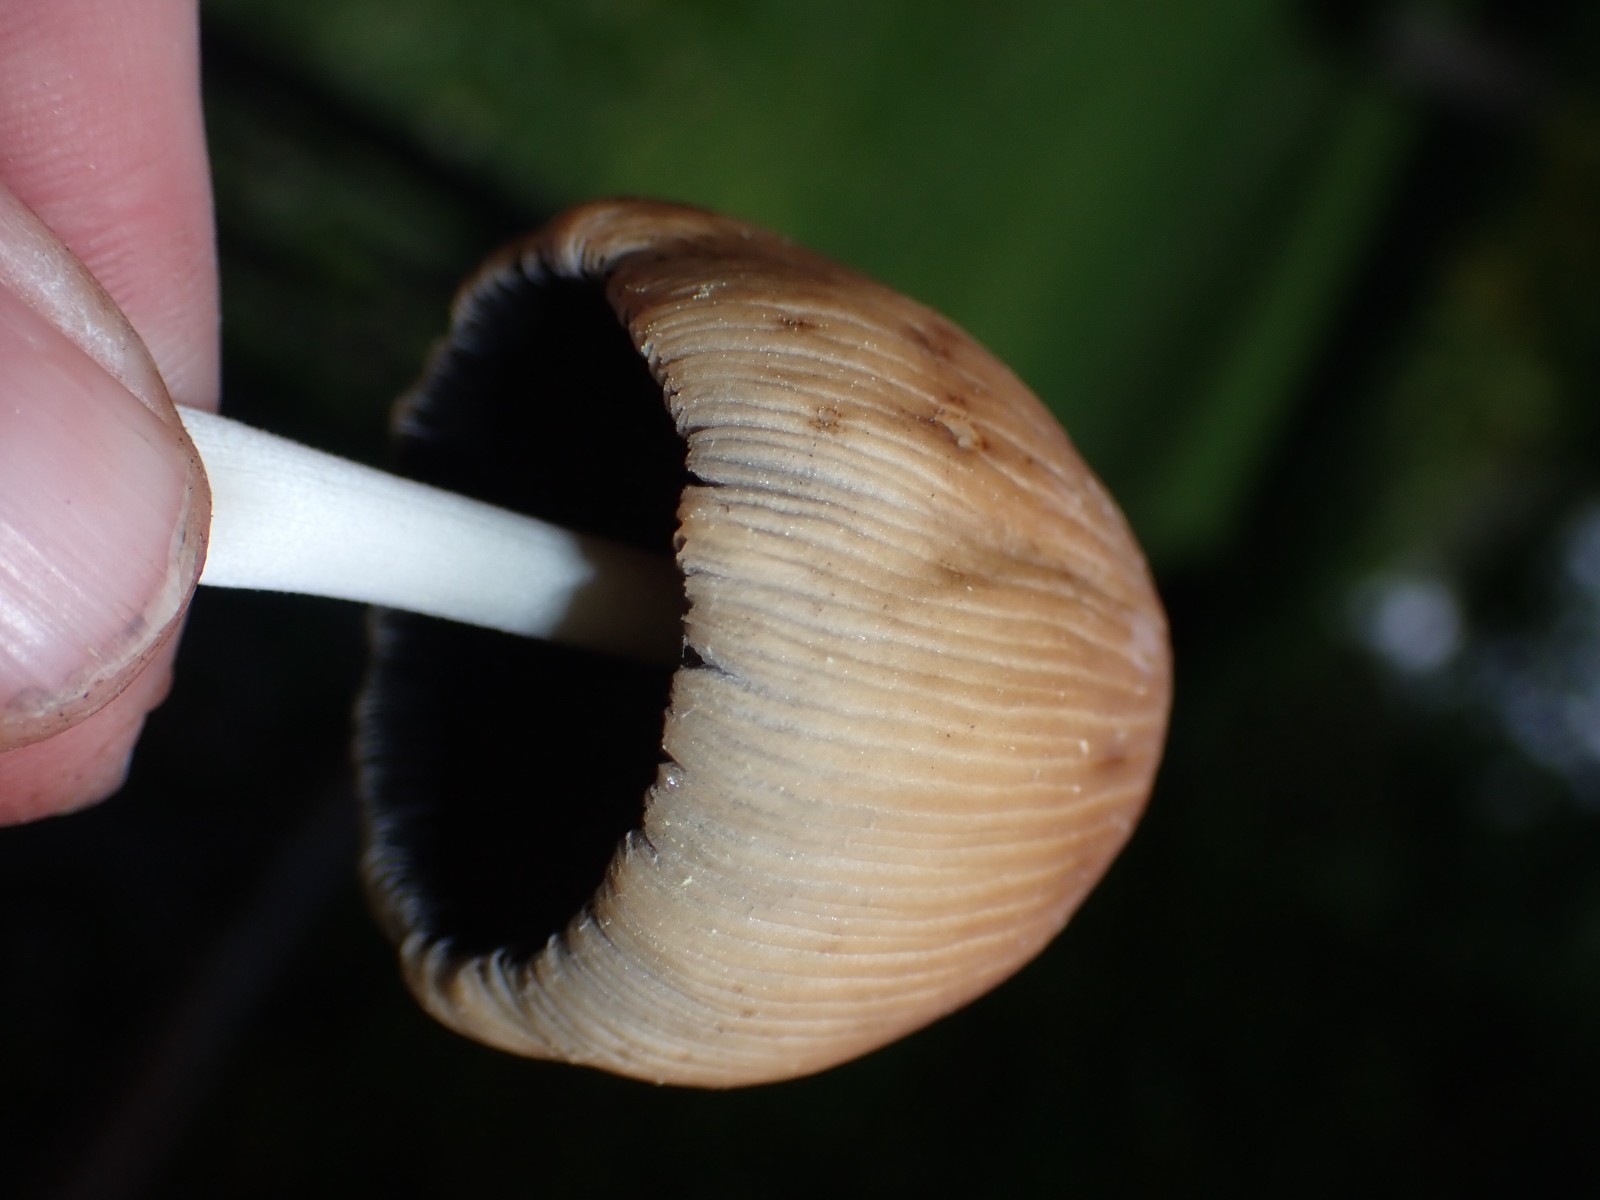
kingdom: Fungi
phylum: Basidiomycota
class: Agaricomycetes
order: Agaricales
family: Psathyrellaceae
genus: Coprinellus
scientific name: Coprinellus
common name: blækhat
